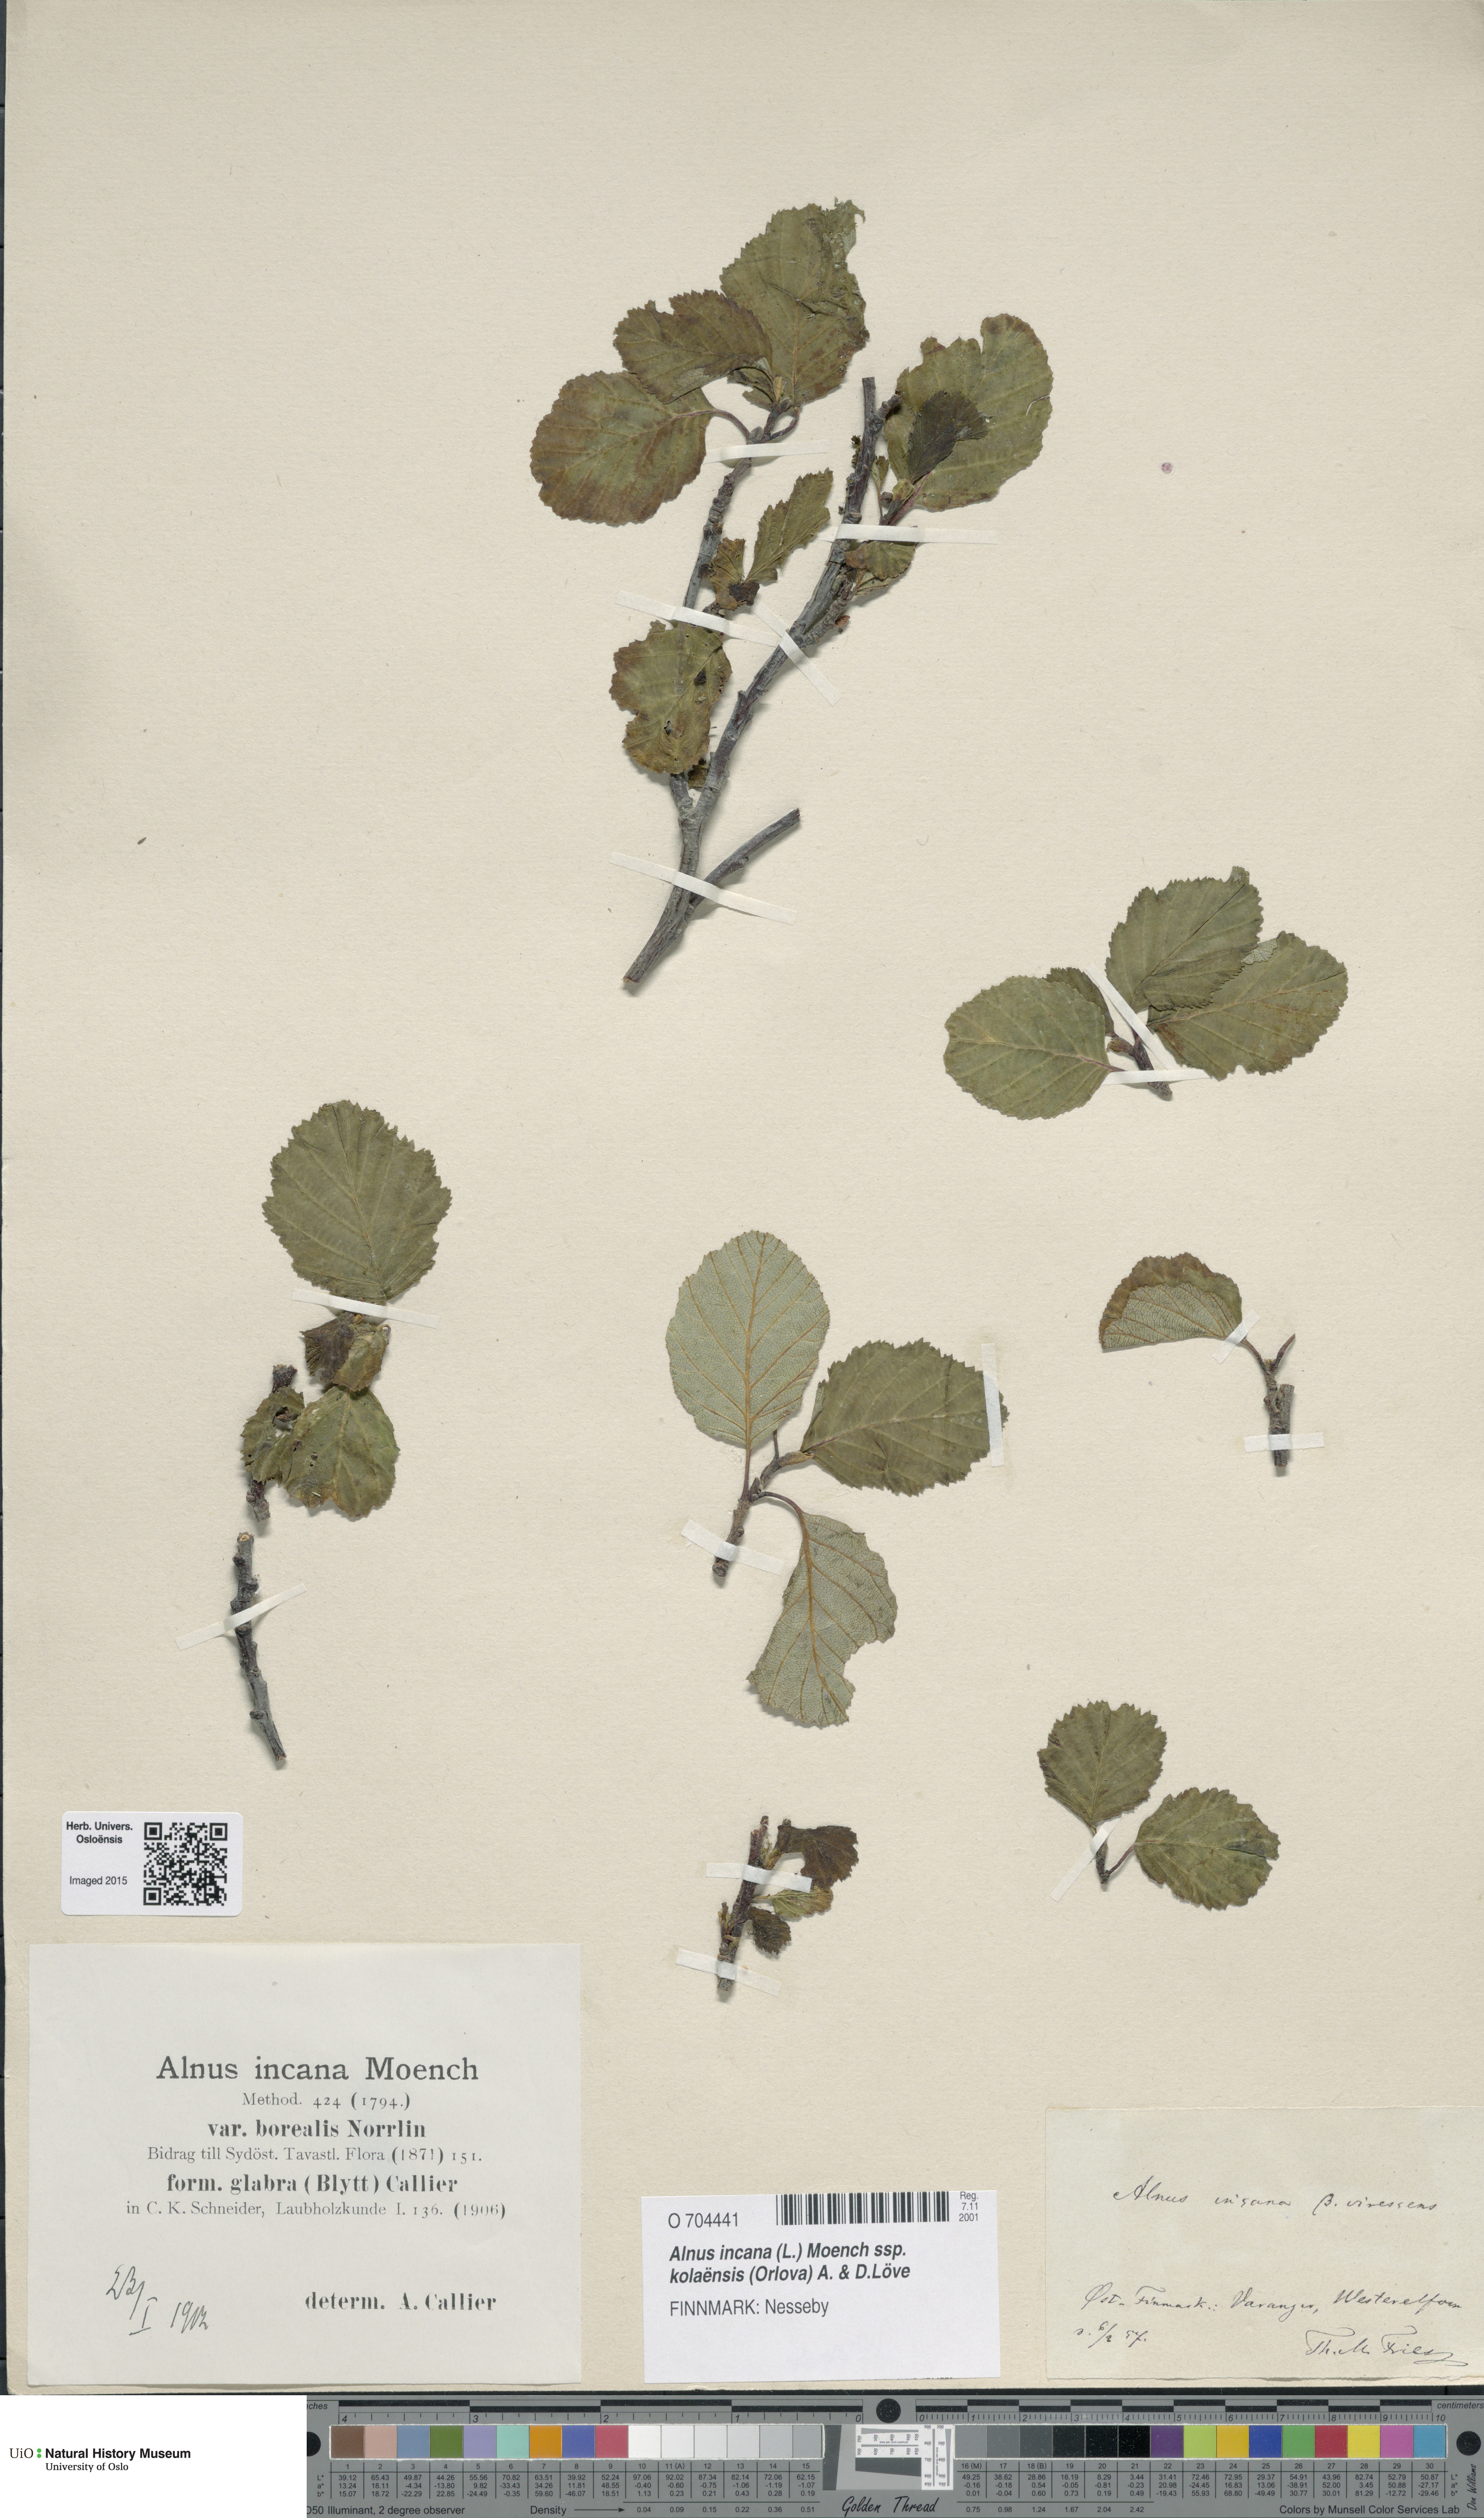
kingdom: Plantae
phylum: Tracheophyta
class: Magnoliopsida
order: Fagales
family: Betulaceae
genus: Alnus
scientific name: Alnus incana
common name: Grey alder
